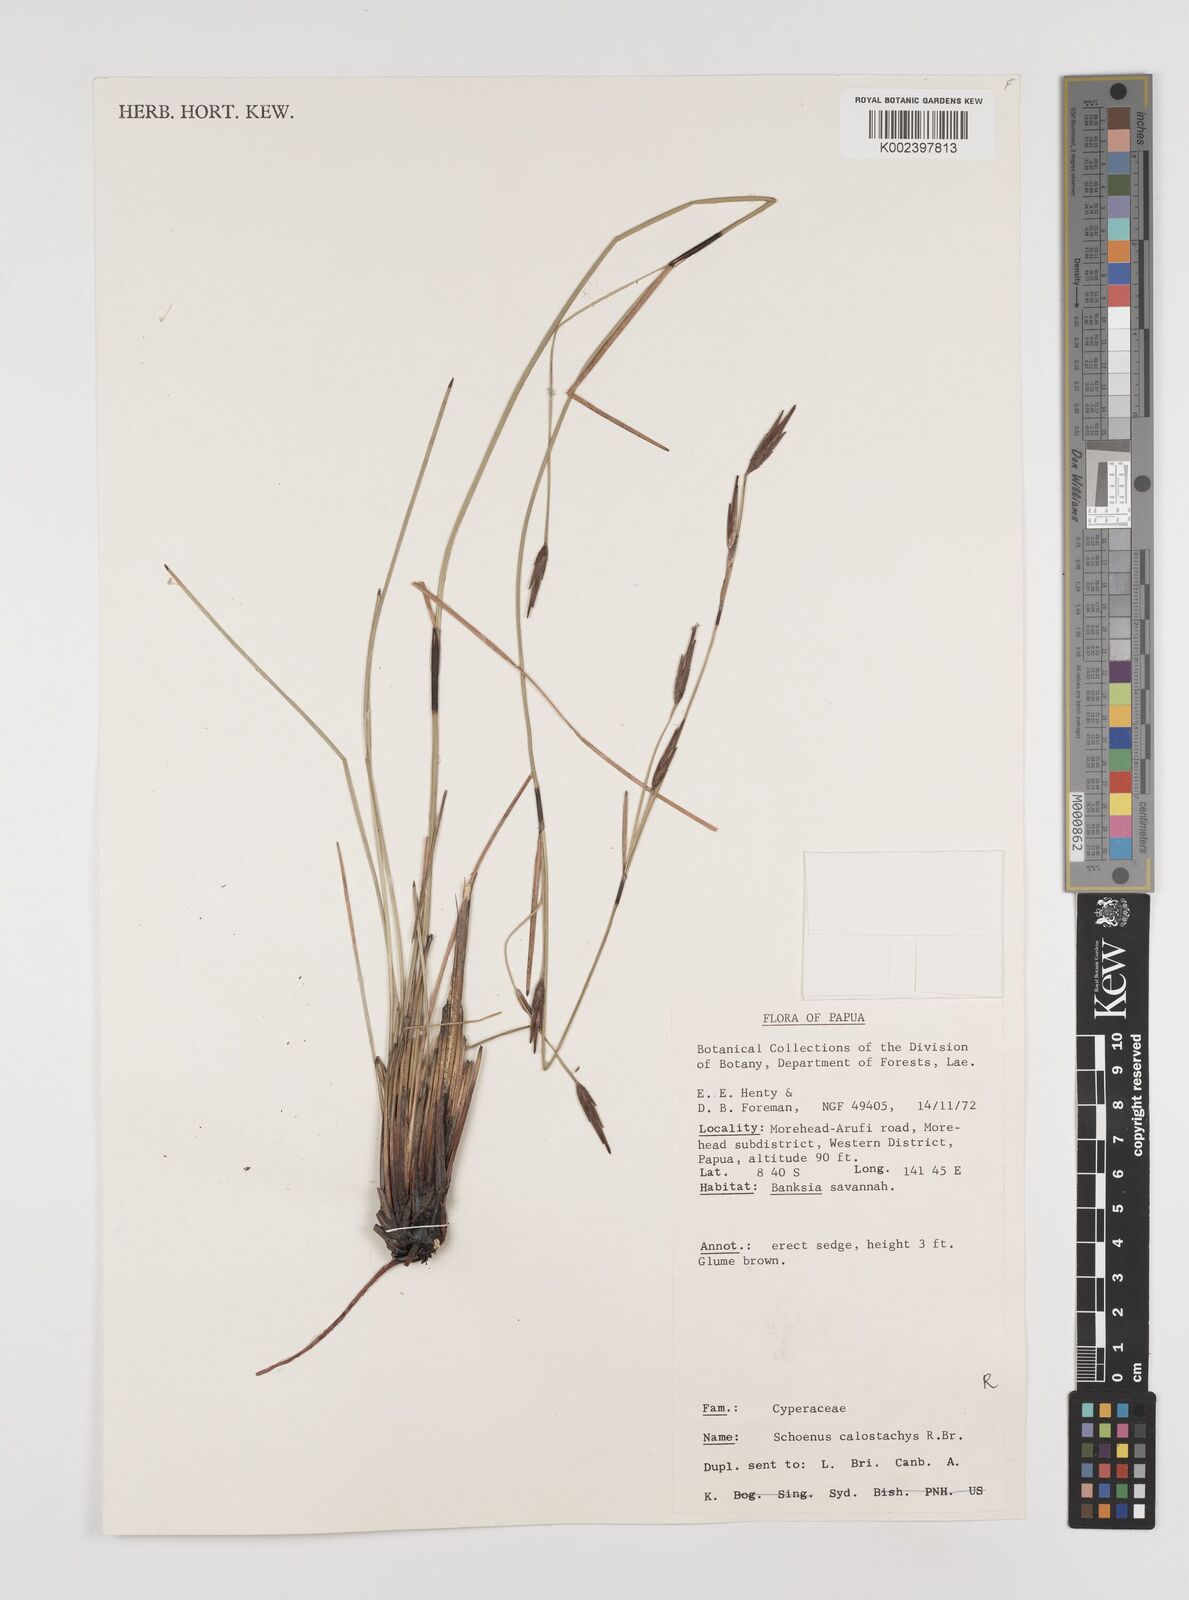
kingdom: Plantae
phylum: Tracheophyta
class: Liliopsida
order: Poales
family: Cyperaceae
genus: Schoenus
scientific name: Schoenus calostachyus
